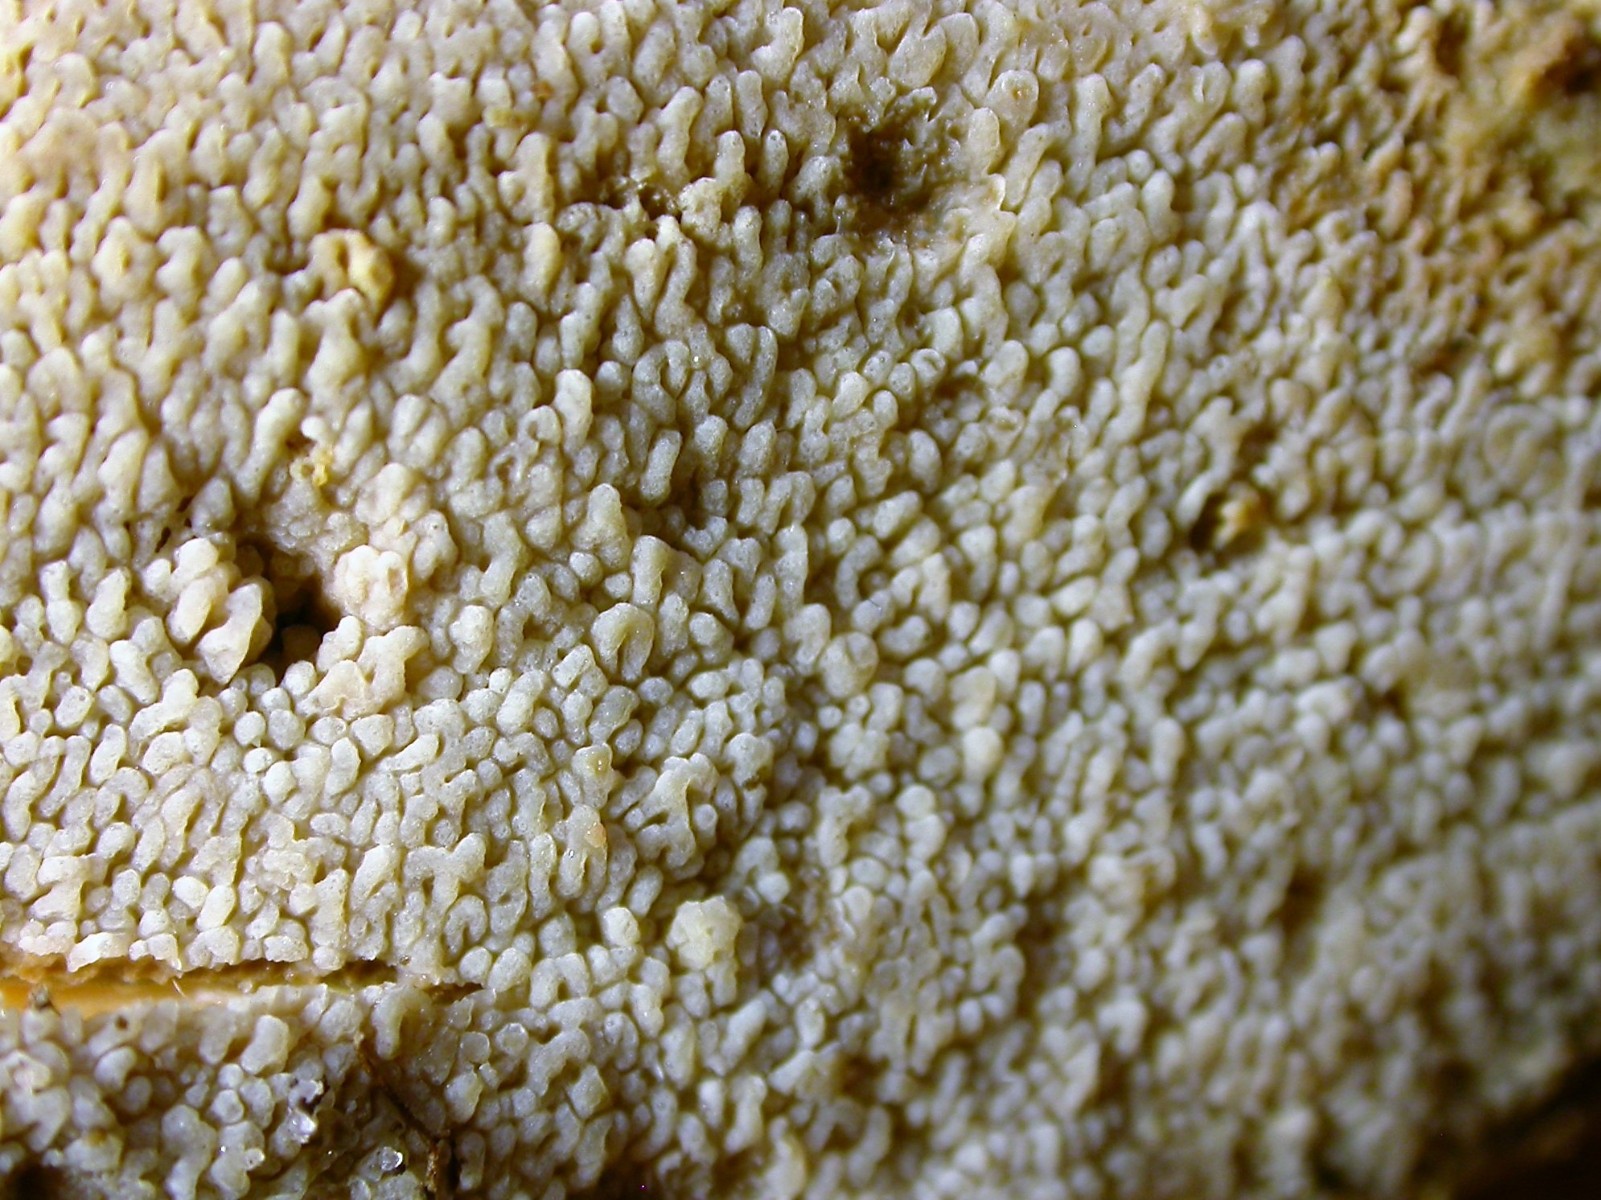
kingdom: Fungi
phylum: Basidiomycota
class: Agaricomycetes
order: Polyporales
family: Irpicaceae
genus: Crystallicutis
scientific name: Crystallicutis serpens
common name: gråviolet barkhinde
